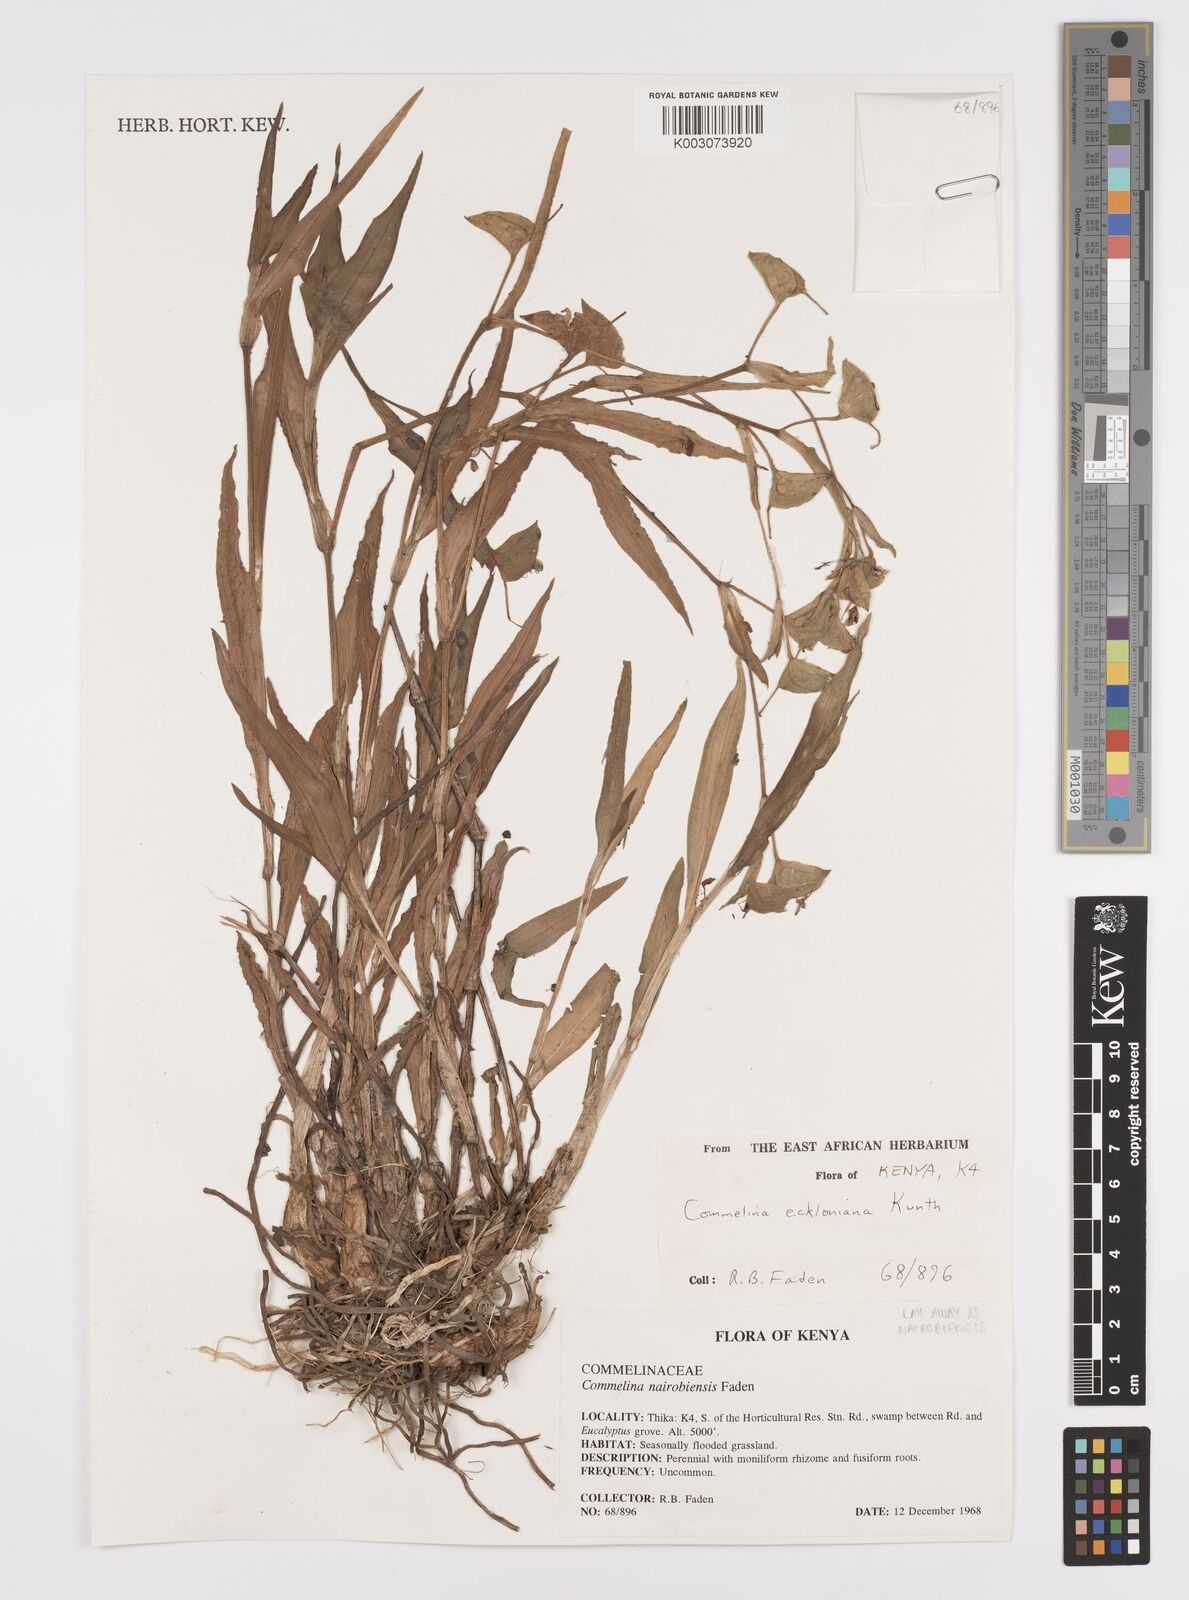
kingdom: Plantae
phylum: Tracheophyta
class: Liliopsida
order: Commelinales
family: Commelinaceae
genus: Commelina
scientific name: Commelina eckloniana
